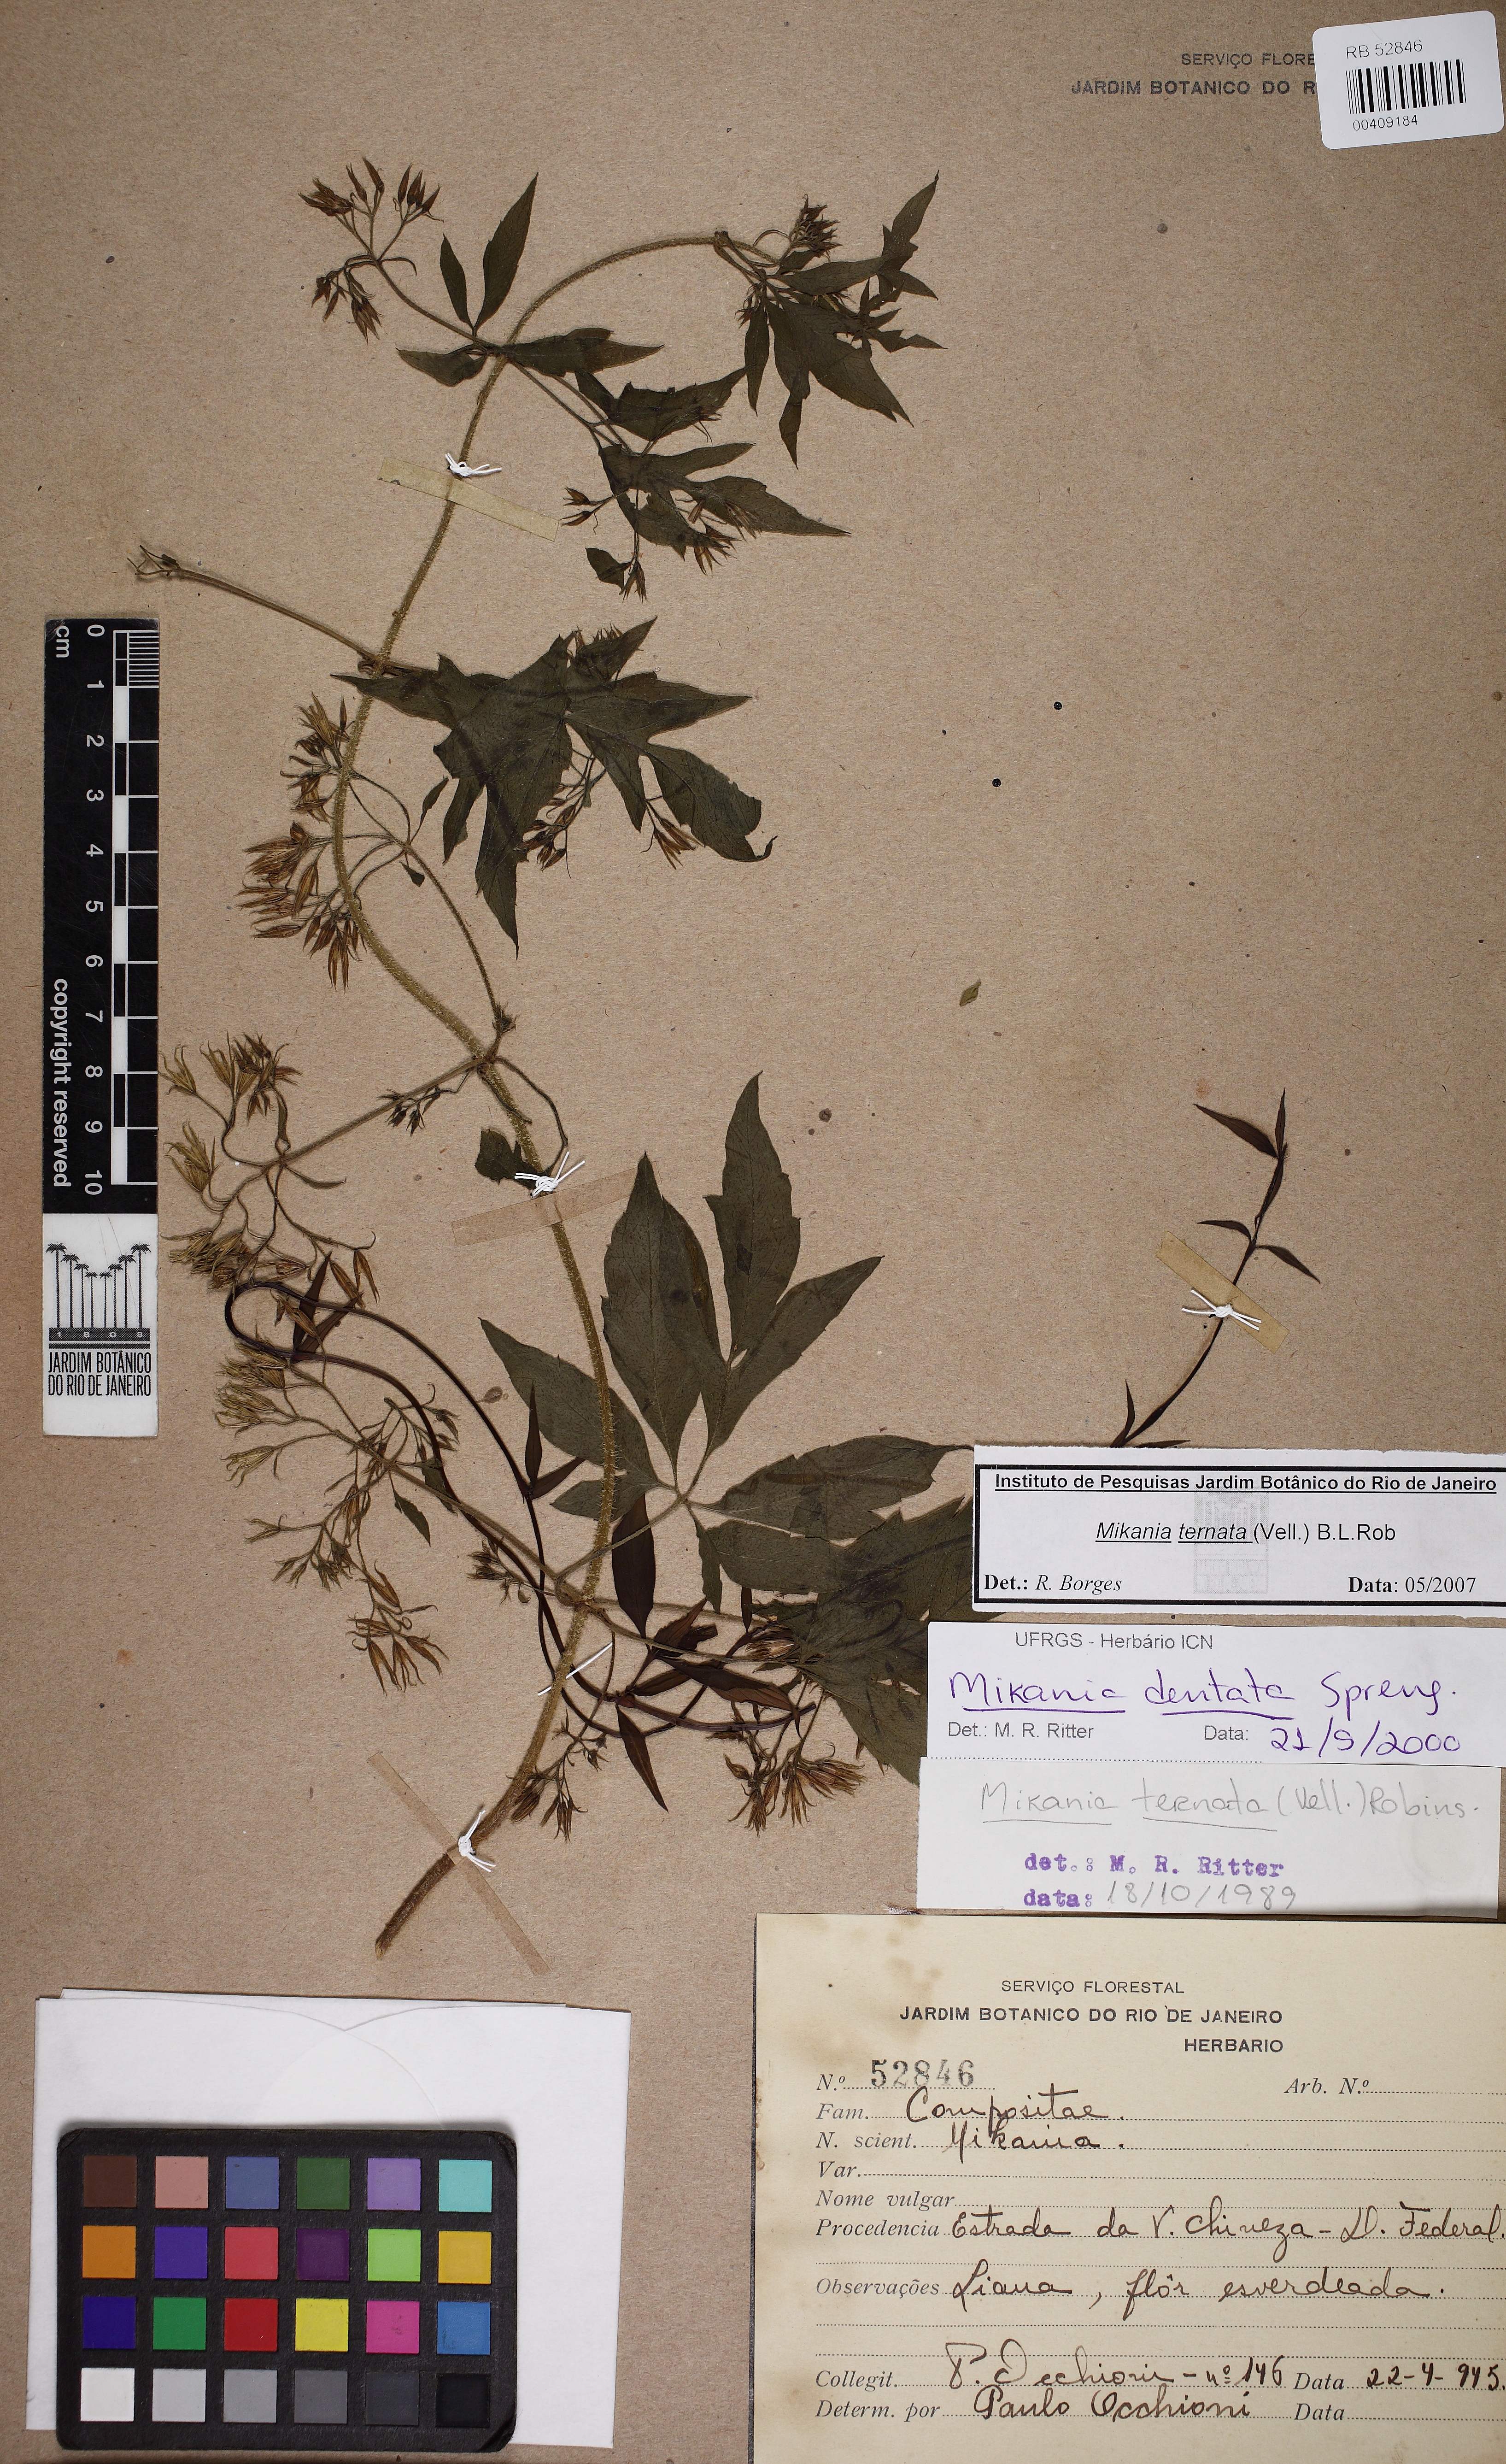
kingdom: Plantae
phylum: Tracheophyta
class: Magnoliopsida
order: Asterales
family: Asteraceae
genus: Mikania
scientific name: Mikania ternata
